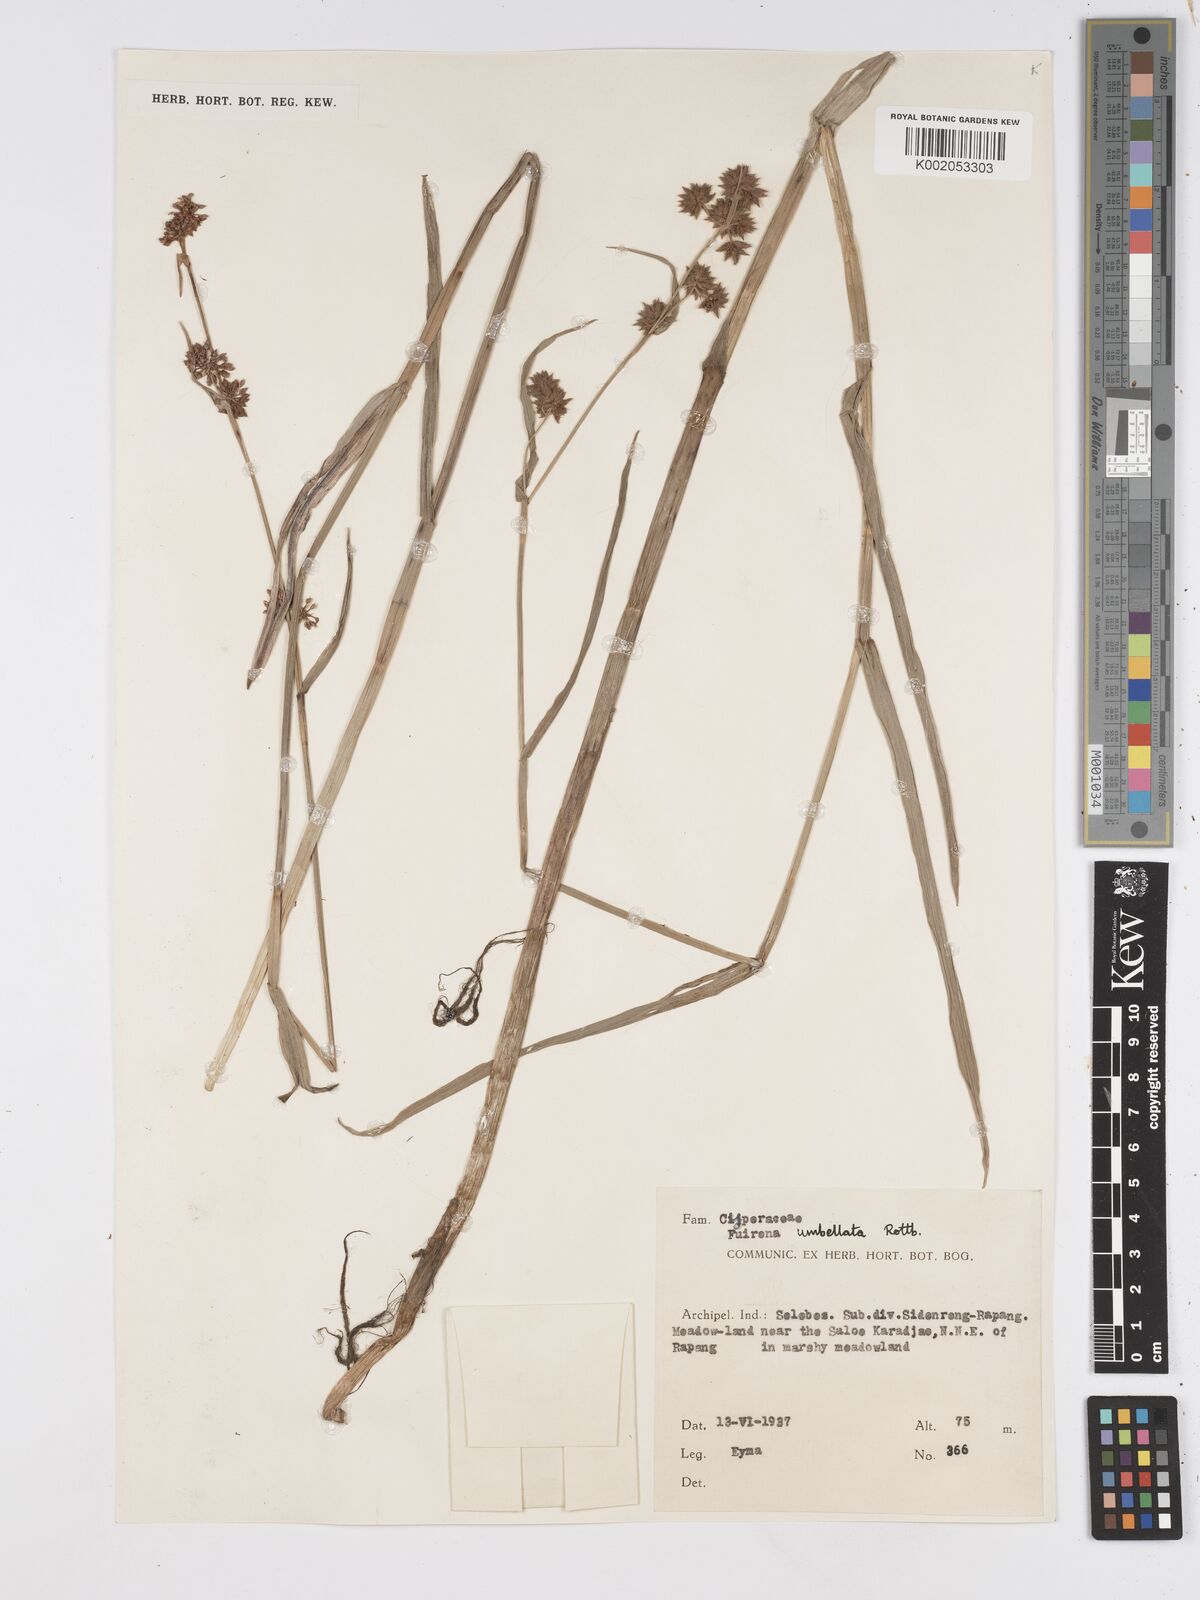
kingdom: Plantae
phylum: Tracheophyta
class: Liliopsida
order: Poales
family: Cyperaceae
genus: Fuirena
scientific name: Fuirena umbellata
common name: Yefen
